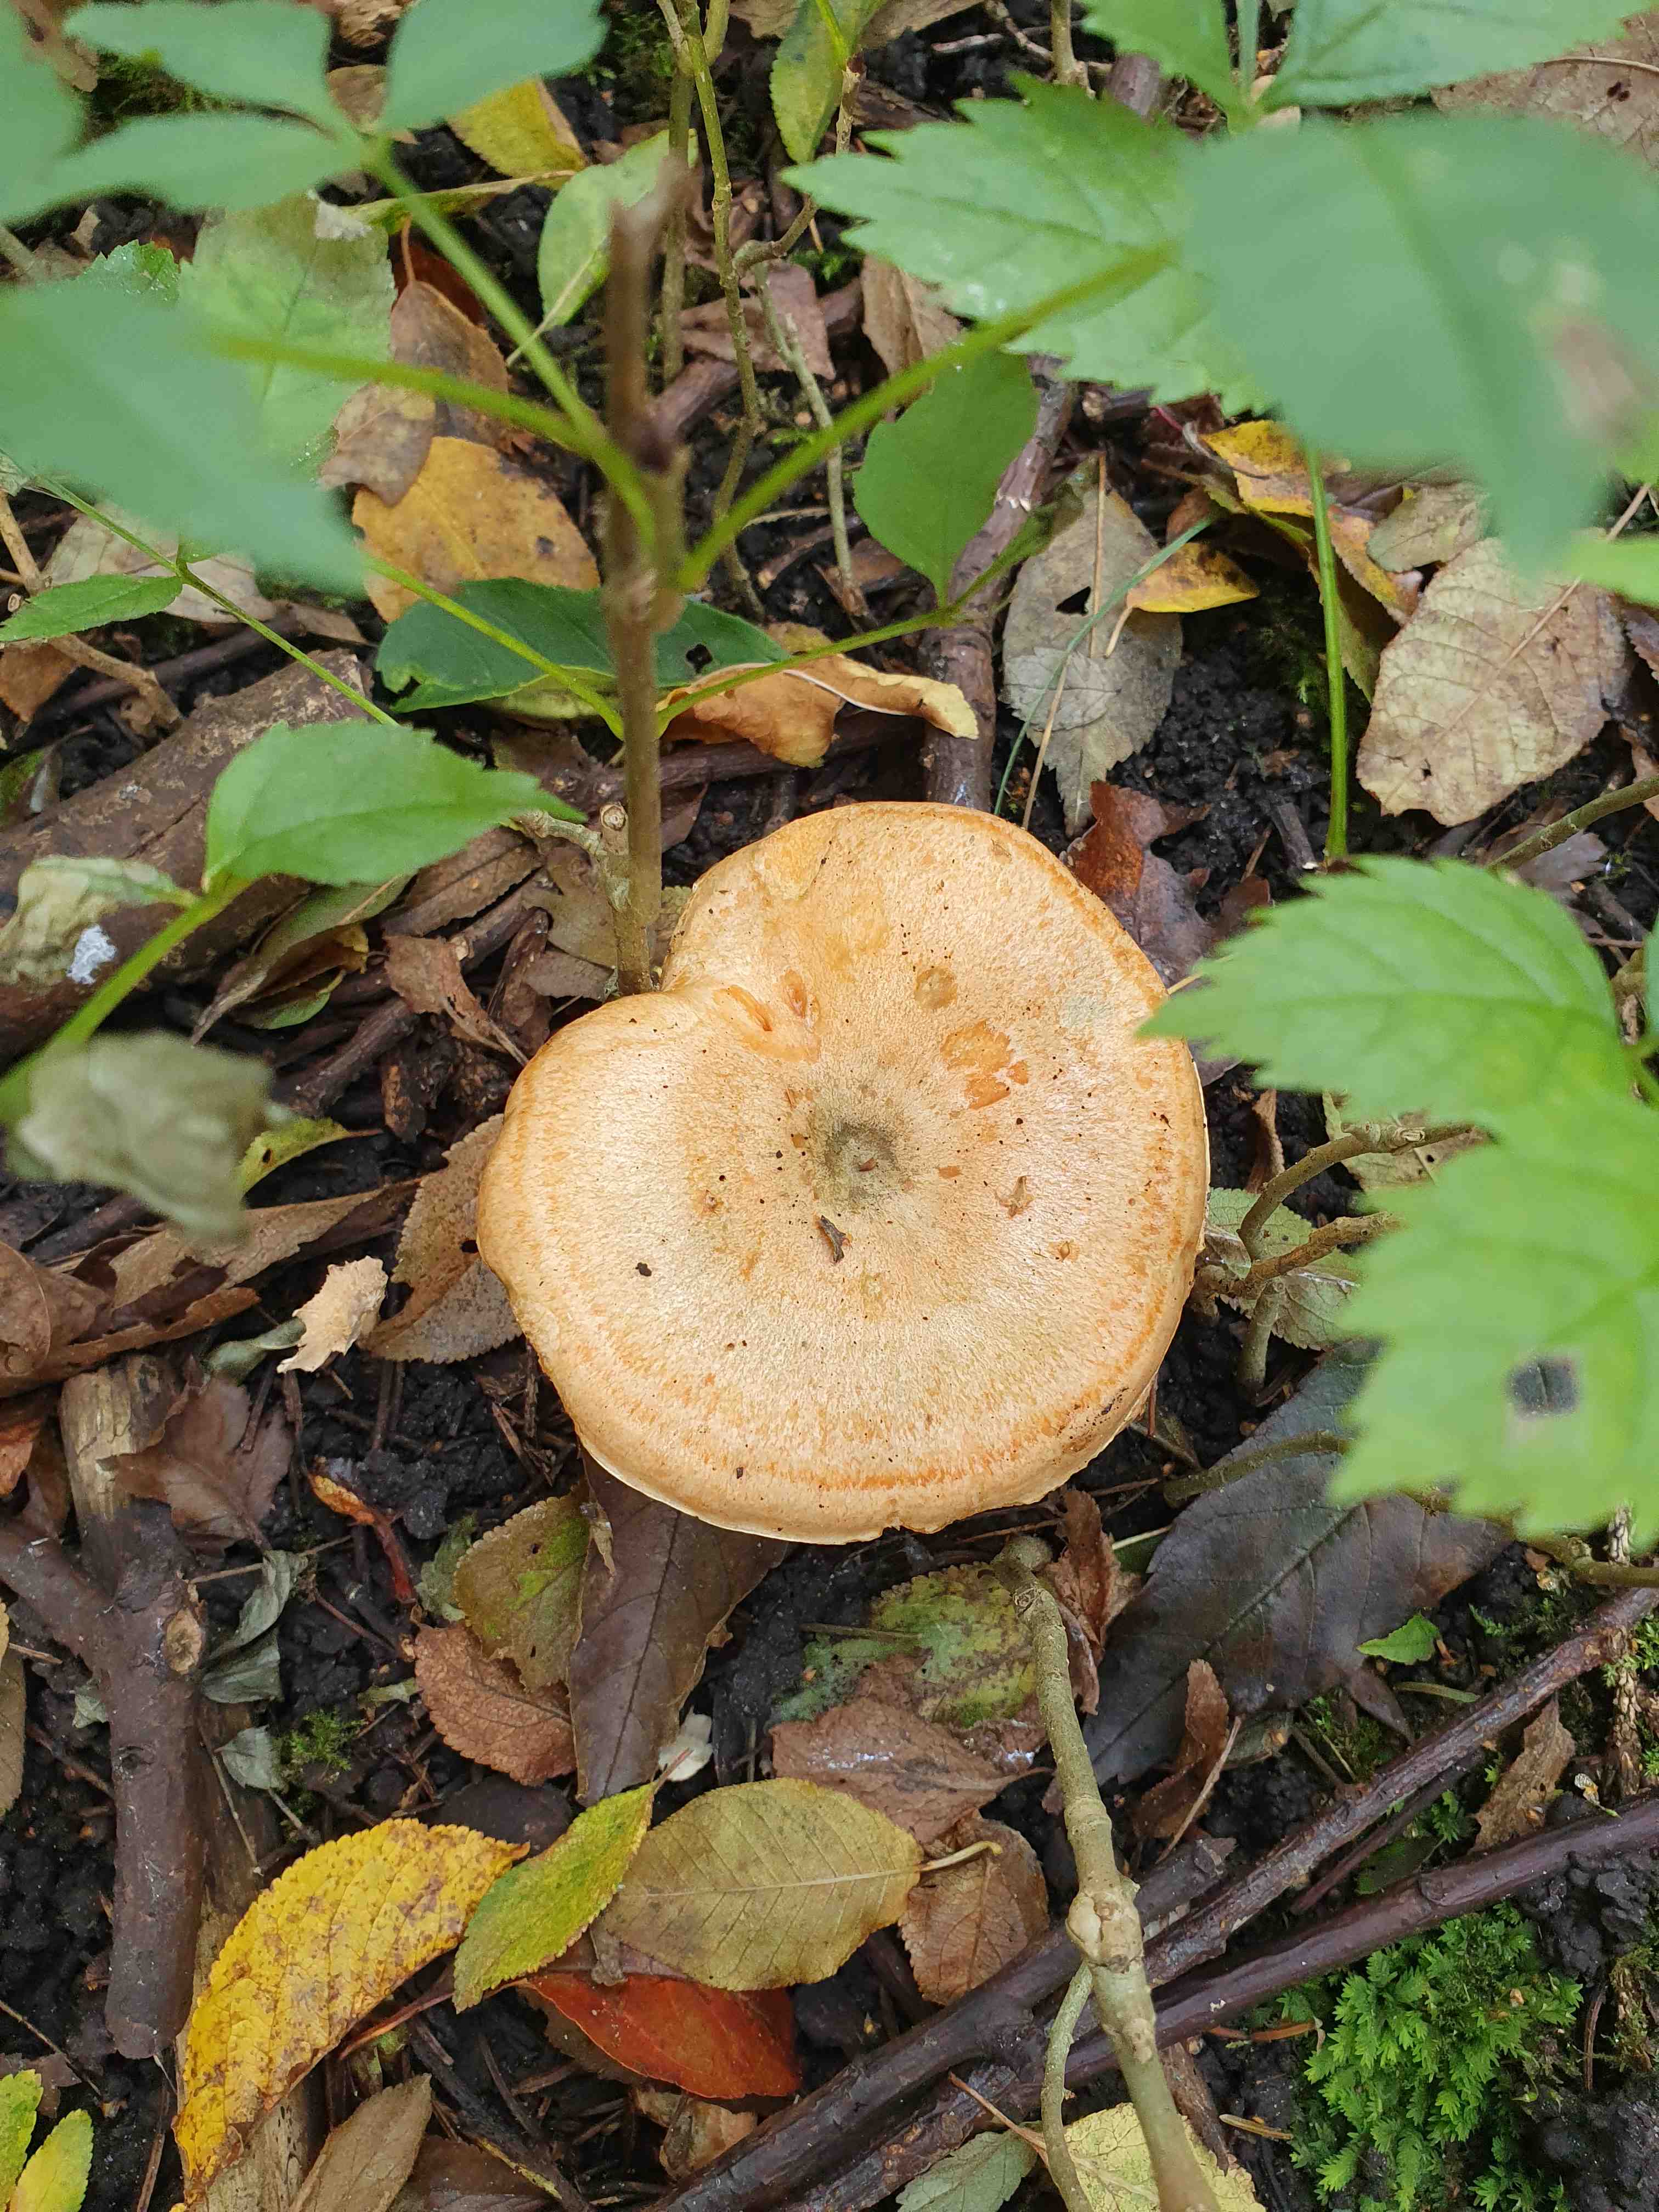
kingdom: Fungi
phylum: Basidiomycota
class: Agaricomycetes
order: Russulales
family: Russulaceae
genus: Lactarius
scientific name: Lactarius deterrimus
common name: gran-mælkehat
